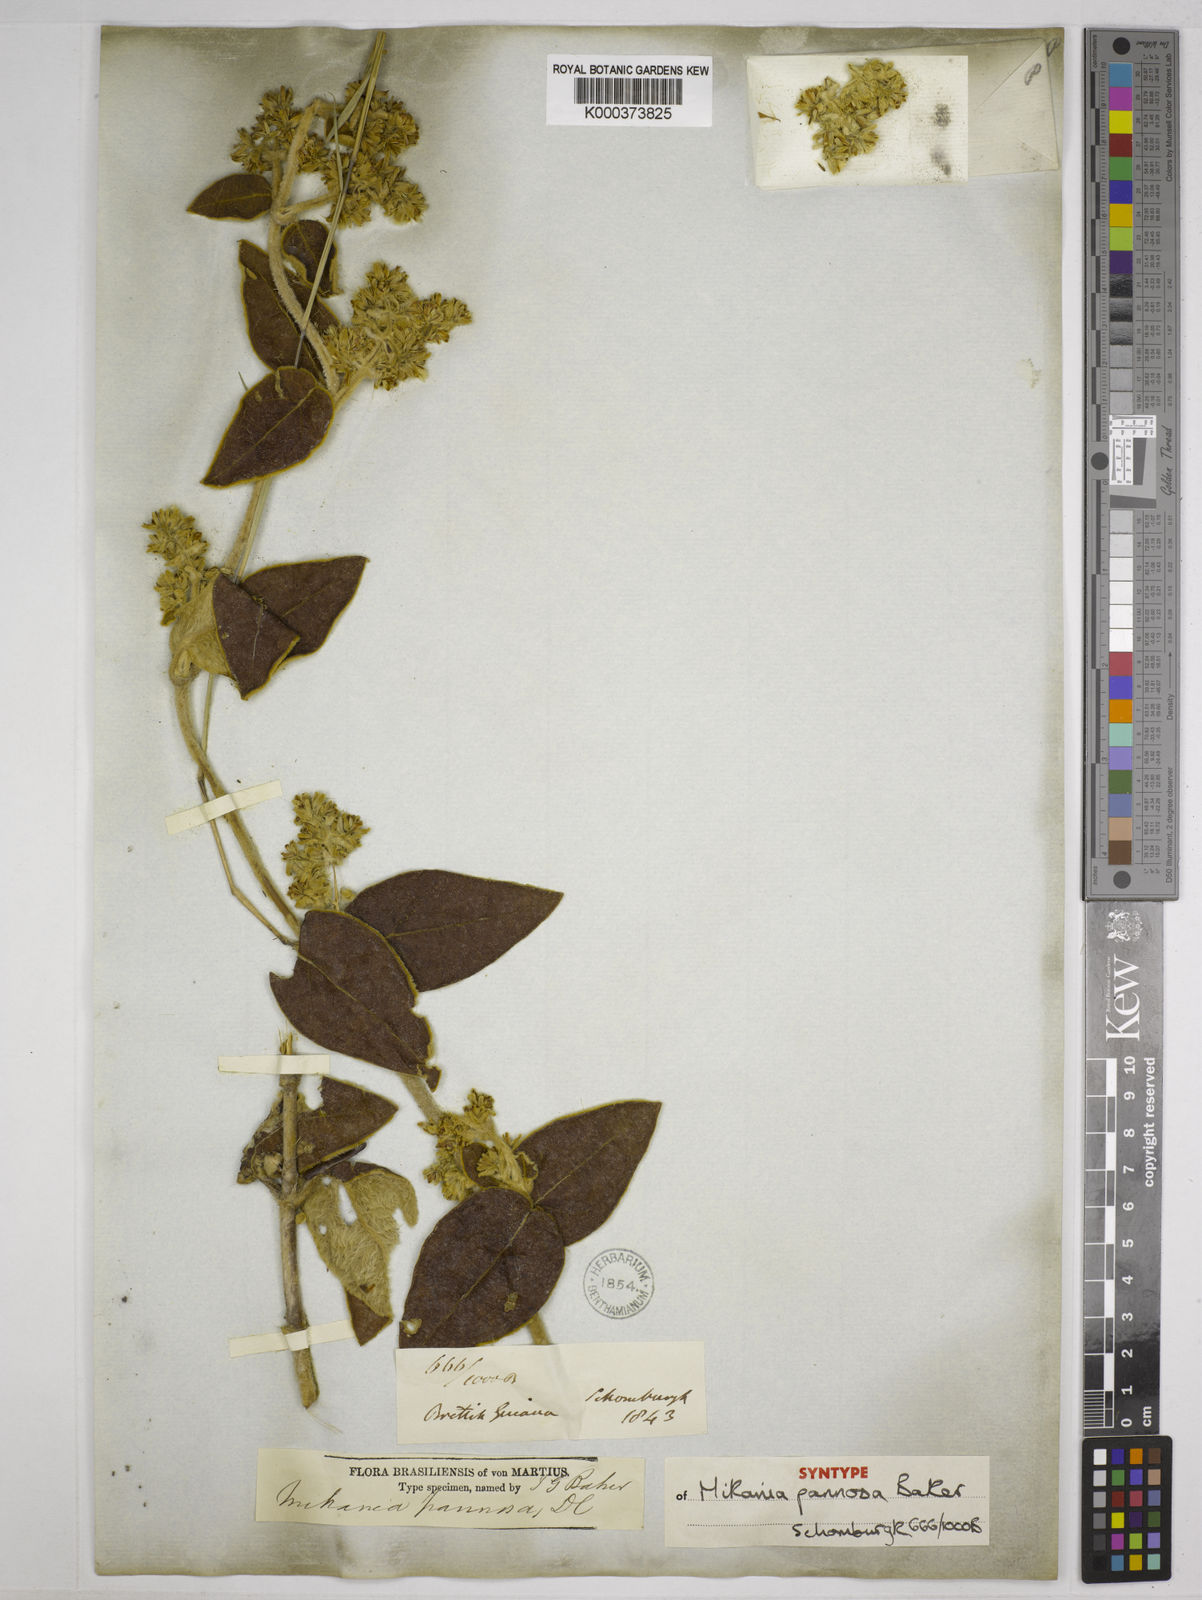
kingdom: Plantae
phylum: Tracheophyta
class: Magnoliopsida
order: Asterales
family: Asteraceae
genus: Mikania
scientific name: Mikania pannosa
